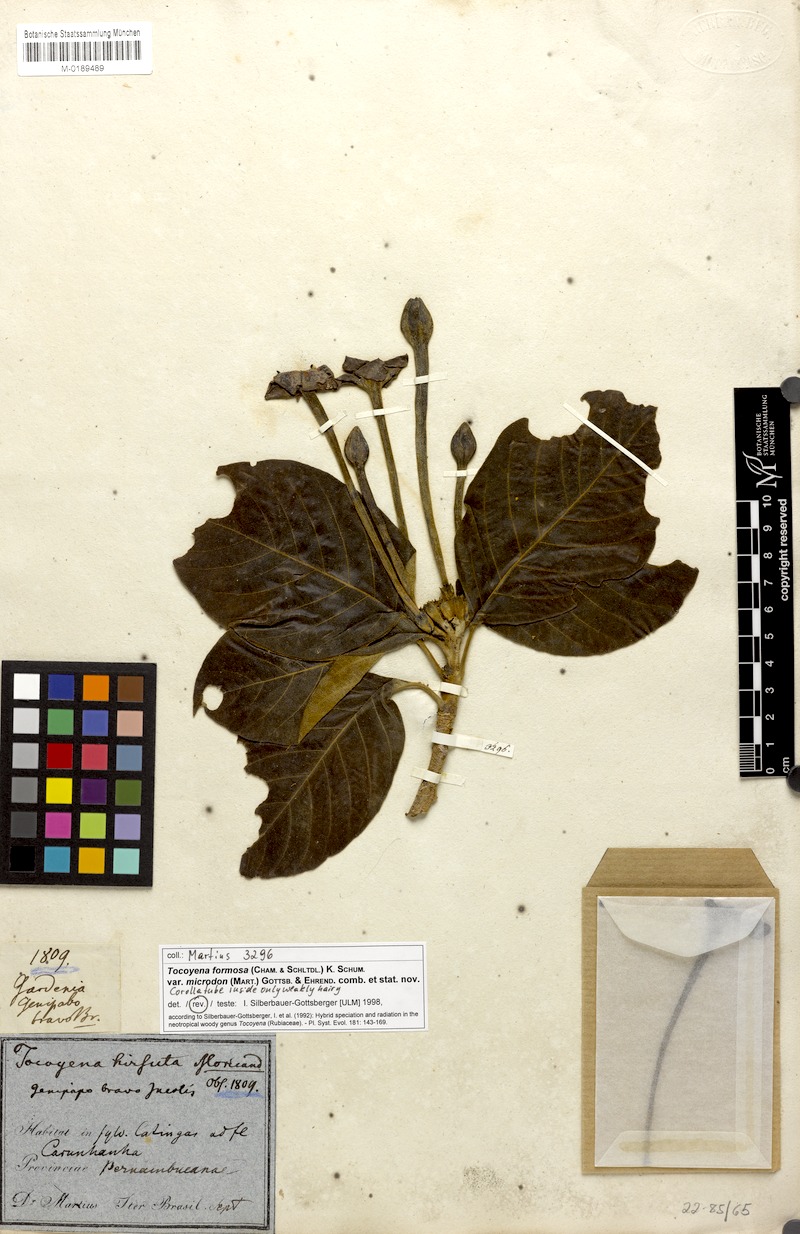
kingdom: Plantae
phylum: Tracheophyta
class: Magnoliopsida
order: Gentianales
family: Rubiaceae
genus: Tocoyena
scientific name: Tocoyena formosa
